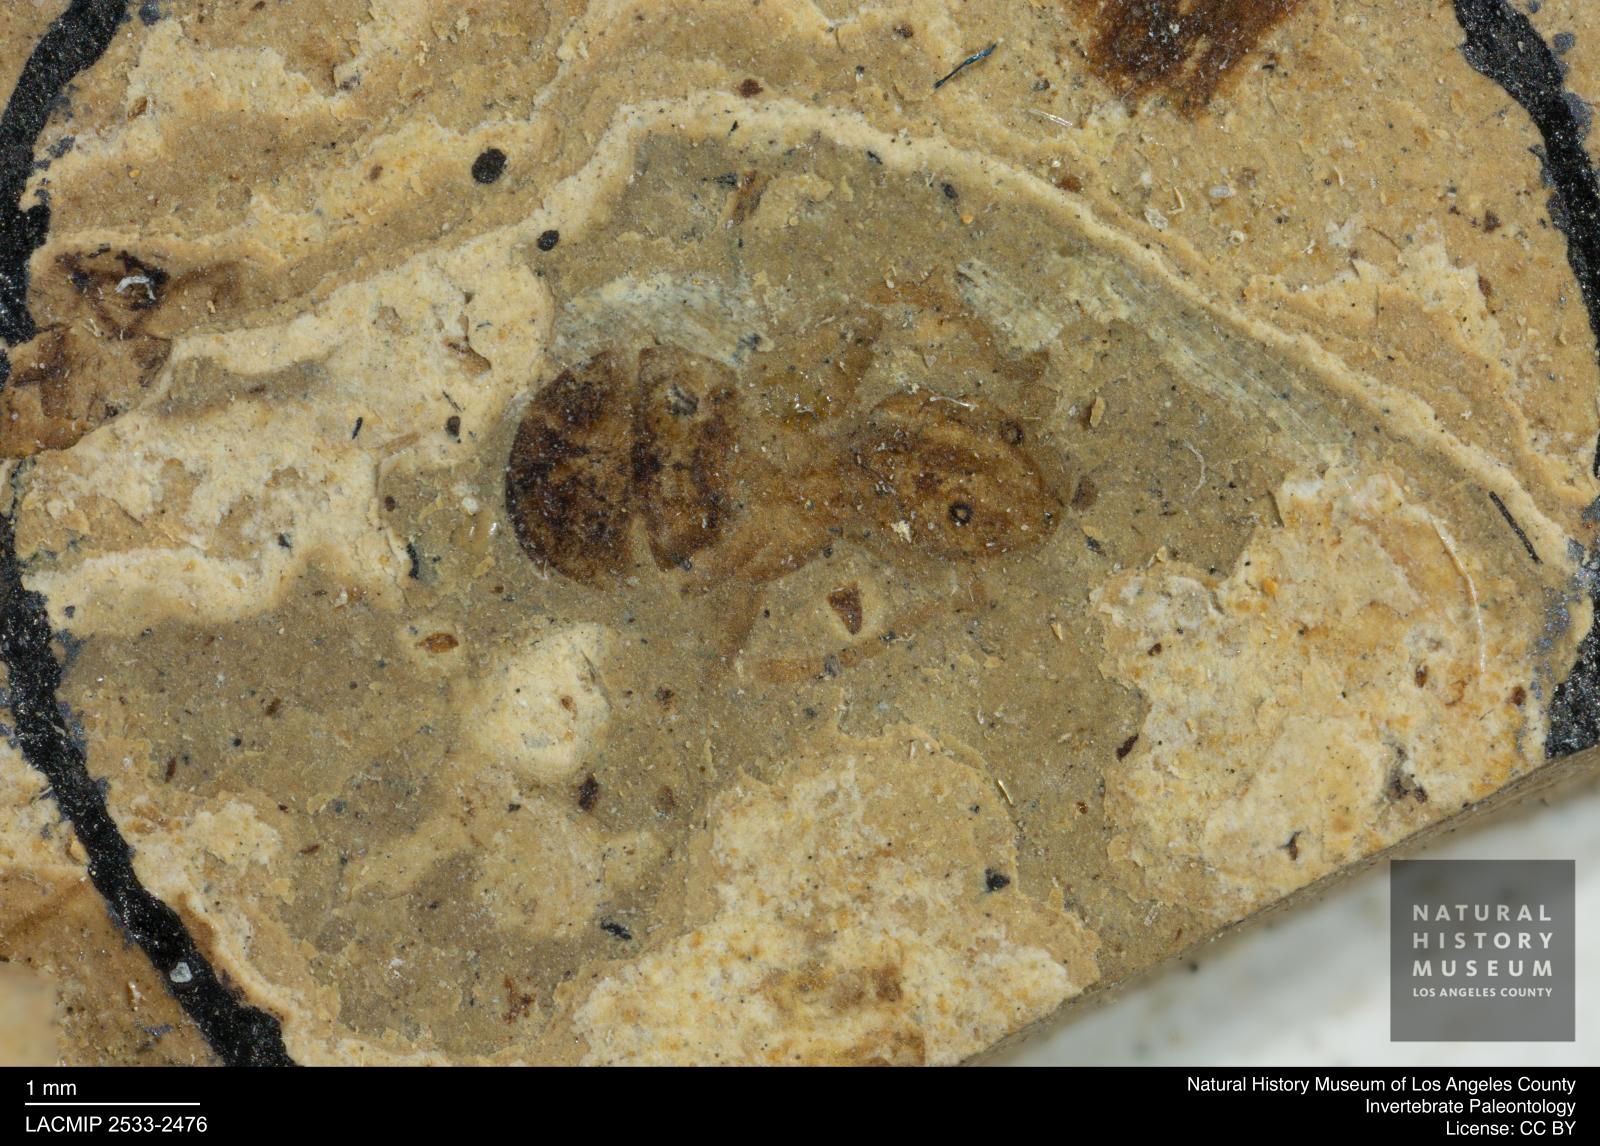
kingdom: Animalia
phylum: Arthropoda
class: Insecta
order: Hymenoptera
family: Formicidae
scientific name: Formicidae
